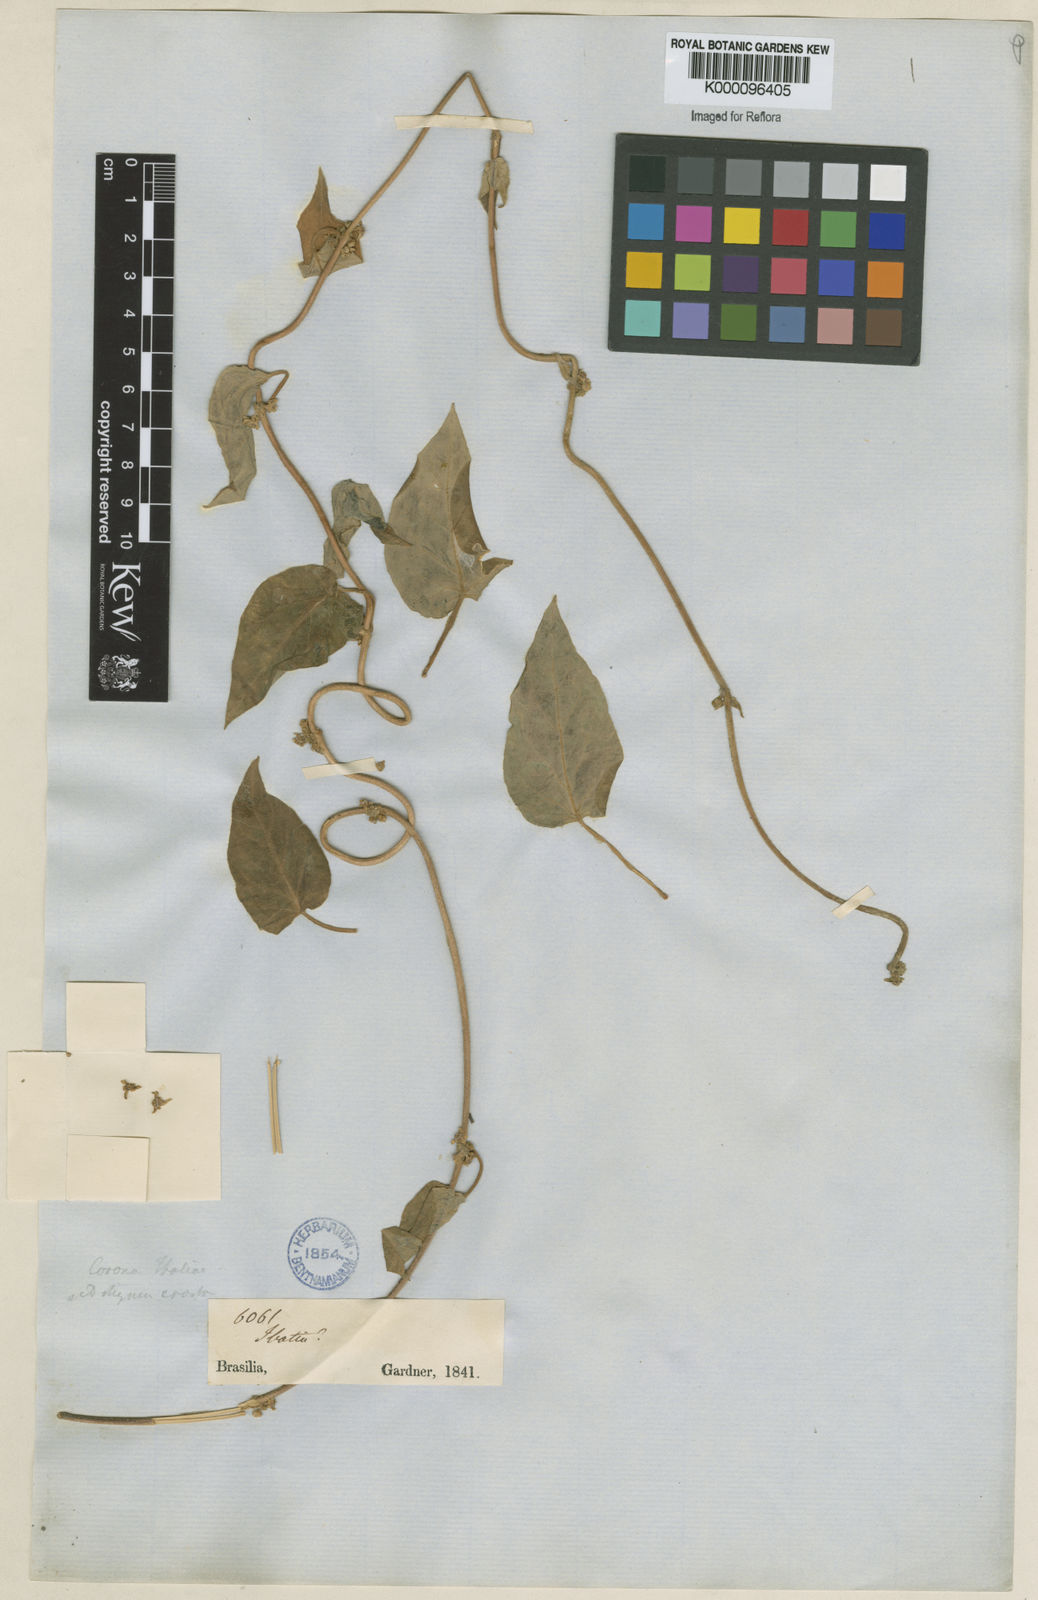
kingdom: Plantae
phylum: Tracheophyta
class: Magnoliopsida
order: Gentianales
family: Apocynaceae
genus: Matelea
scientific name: Matelea
